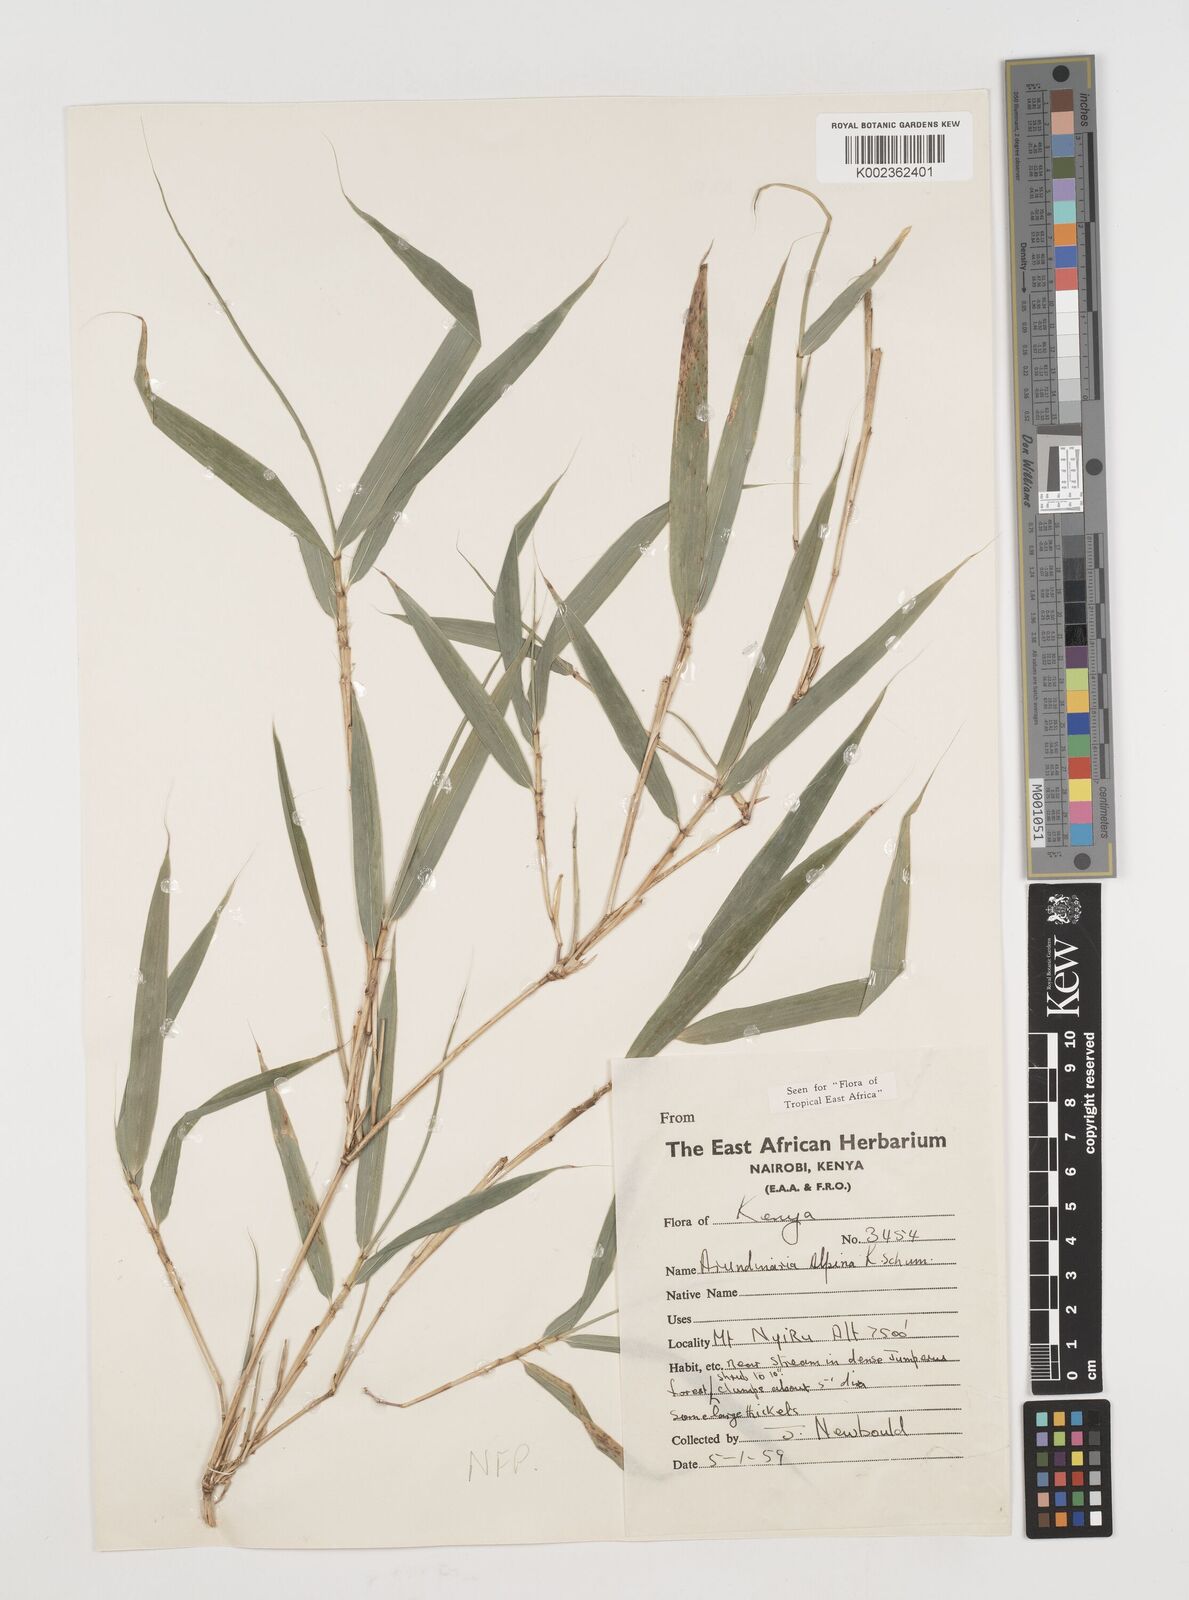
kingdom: Plantae
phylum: Tracheophyta
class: Liliopsida
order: Poales
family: Poaceae
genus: Oldeania
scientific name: Oldeania alpina
